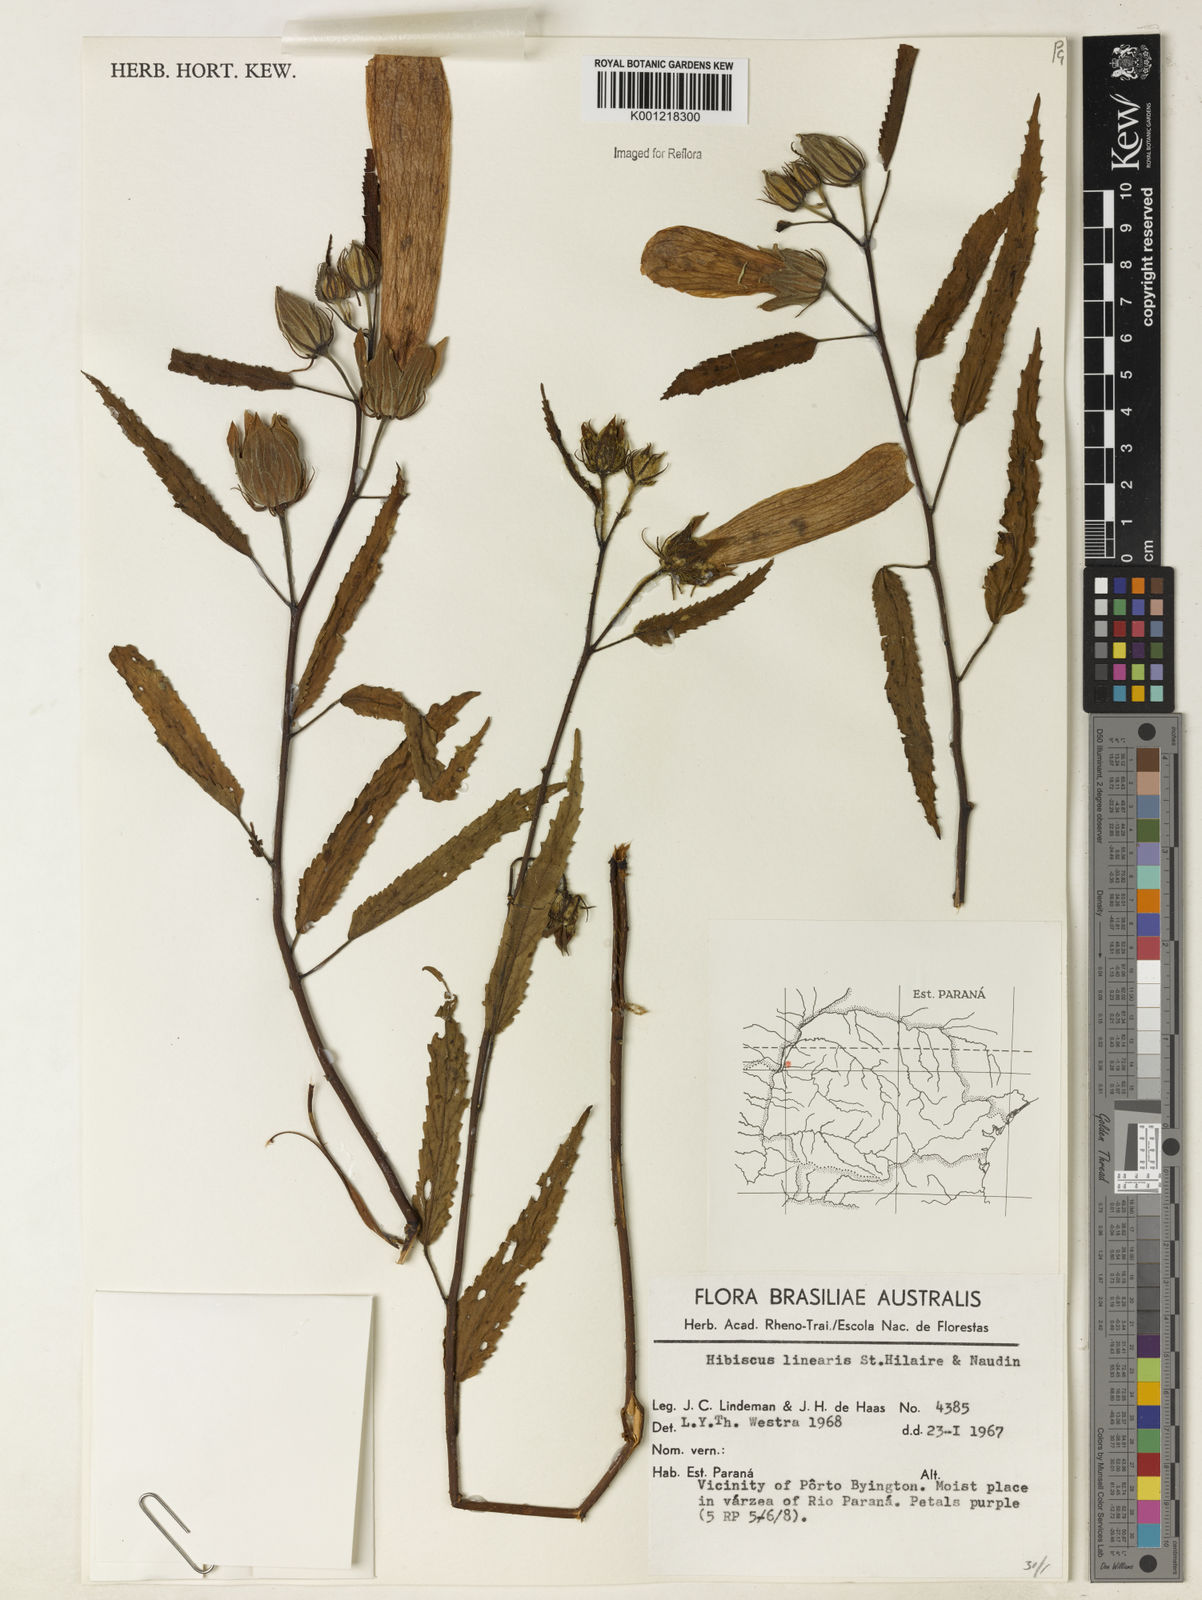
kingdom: Plantae
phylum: Tracheophyta
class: Magnoliopsida
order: Malvales
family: Malvaceae
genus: Hibiscus
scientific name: Hibiscus striatus
